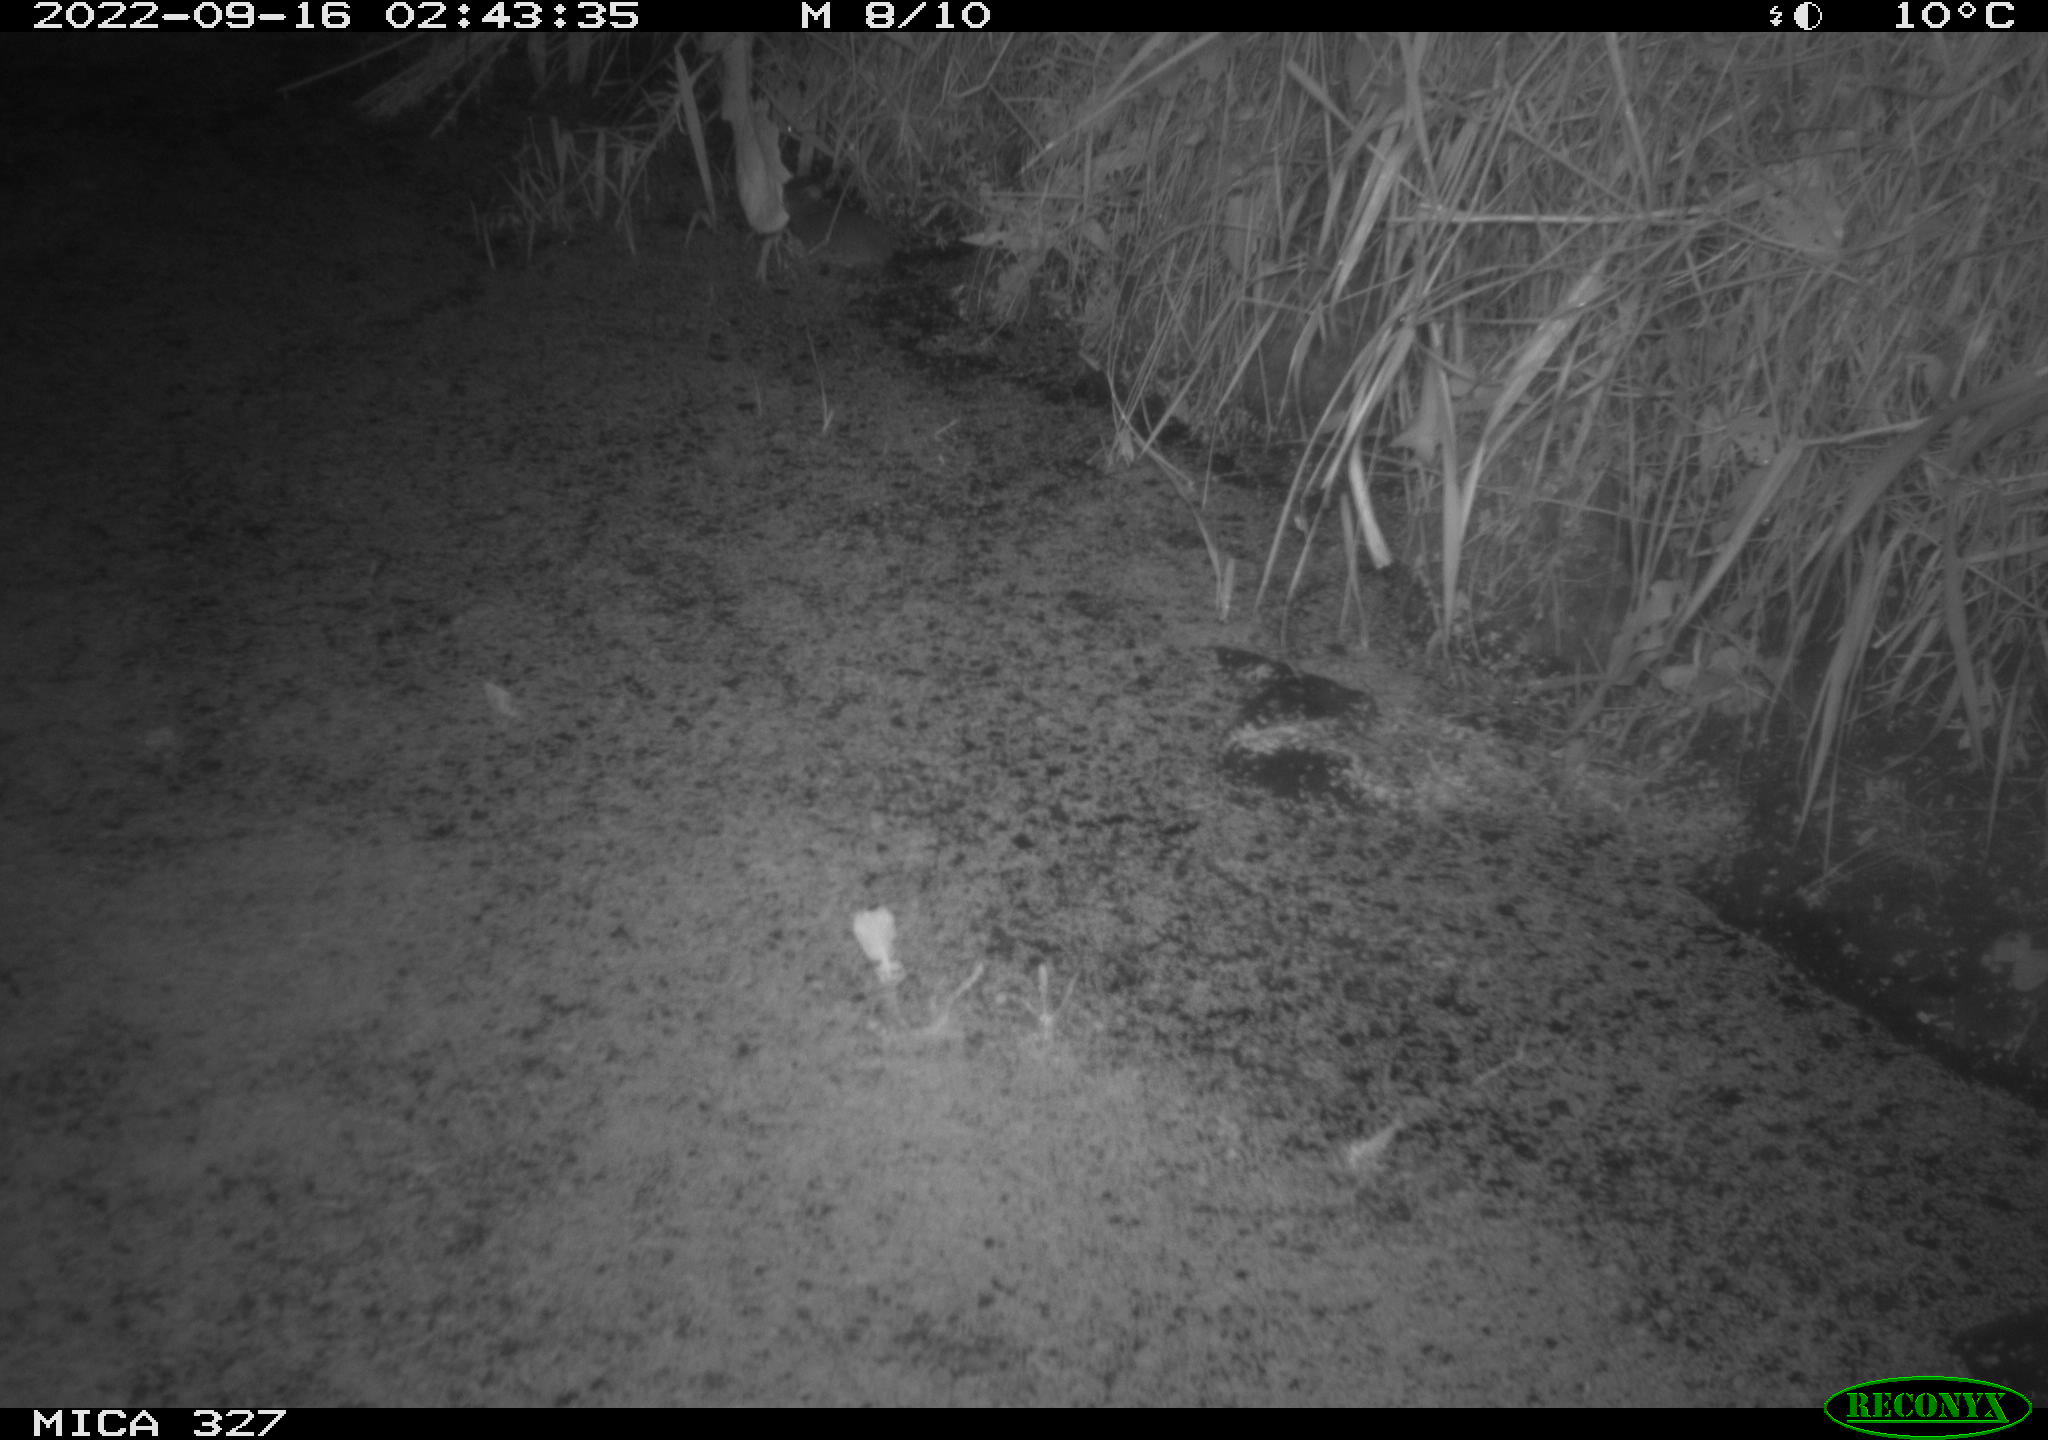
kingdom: Animalia
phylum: Chordata
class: Mammalia
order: Rodentia
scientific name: Rodentia
